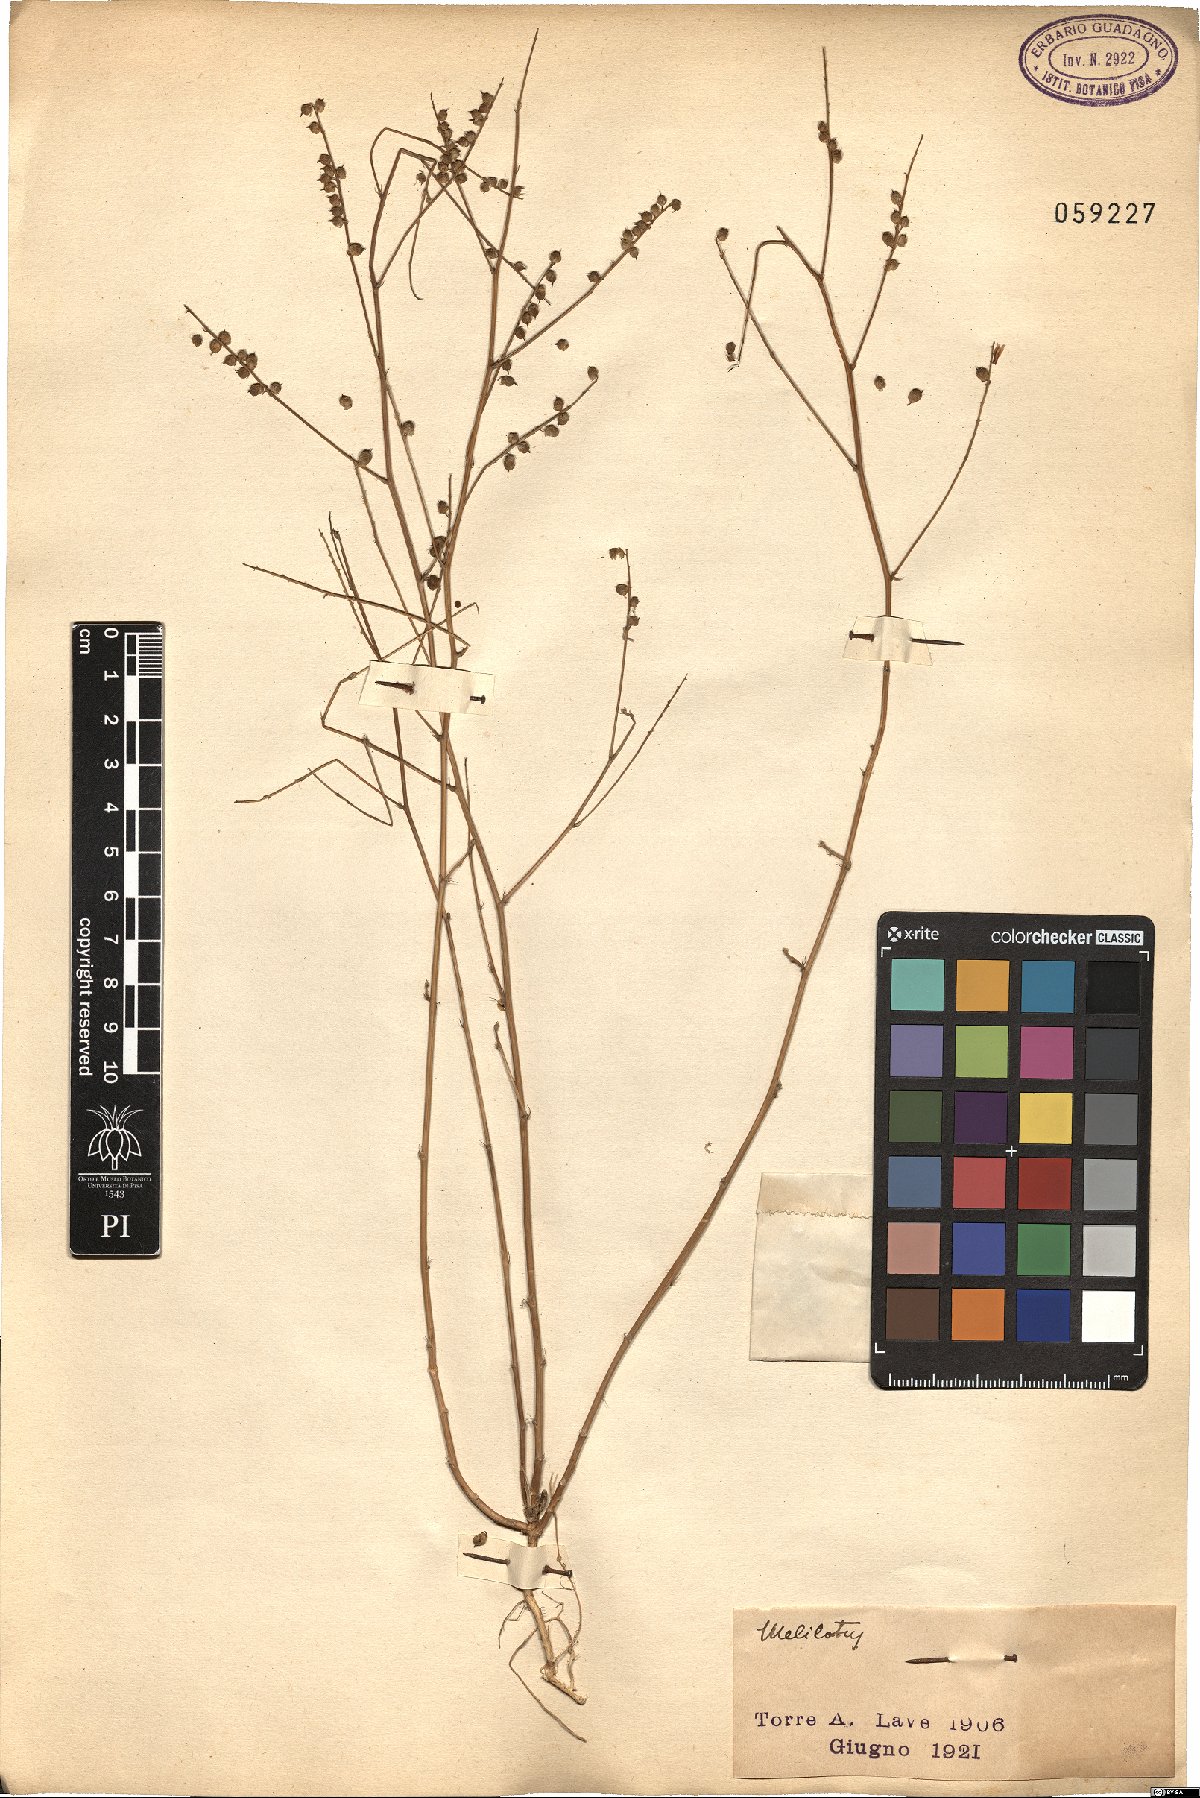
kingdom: Plantae
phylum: Tracheophyta
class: Magnoliopsida
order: Fabales
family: Fabaceae
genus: Melilotus
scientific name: Melilotus
